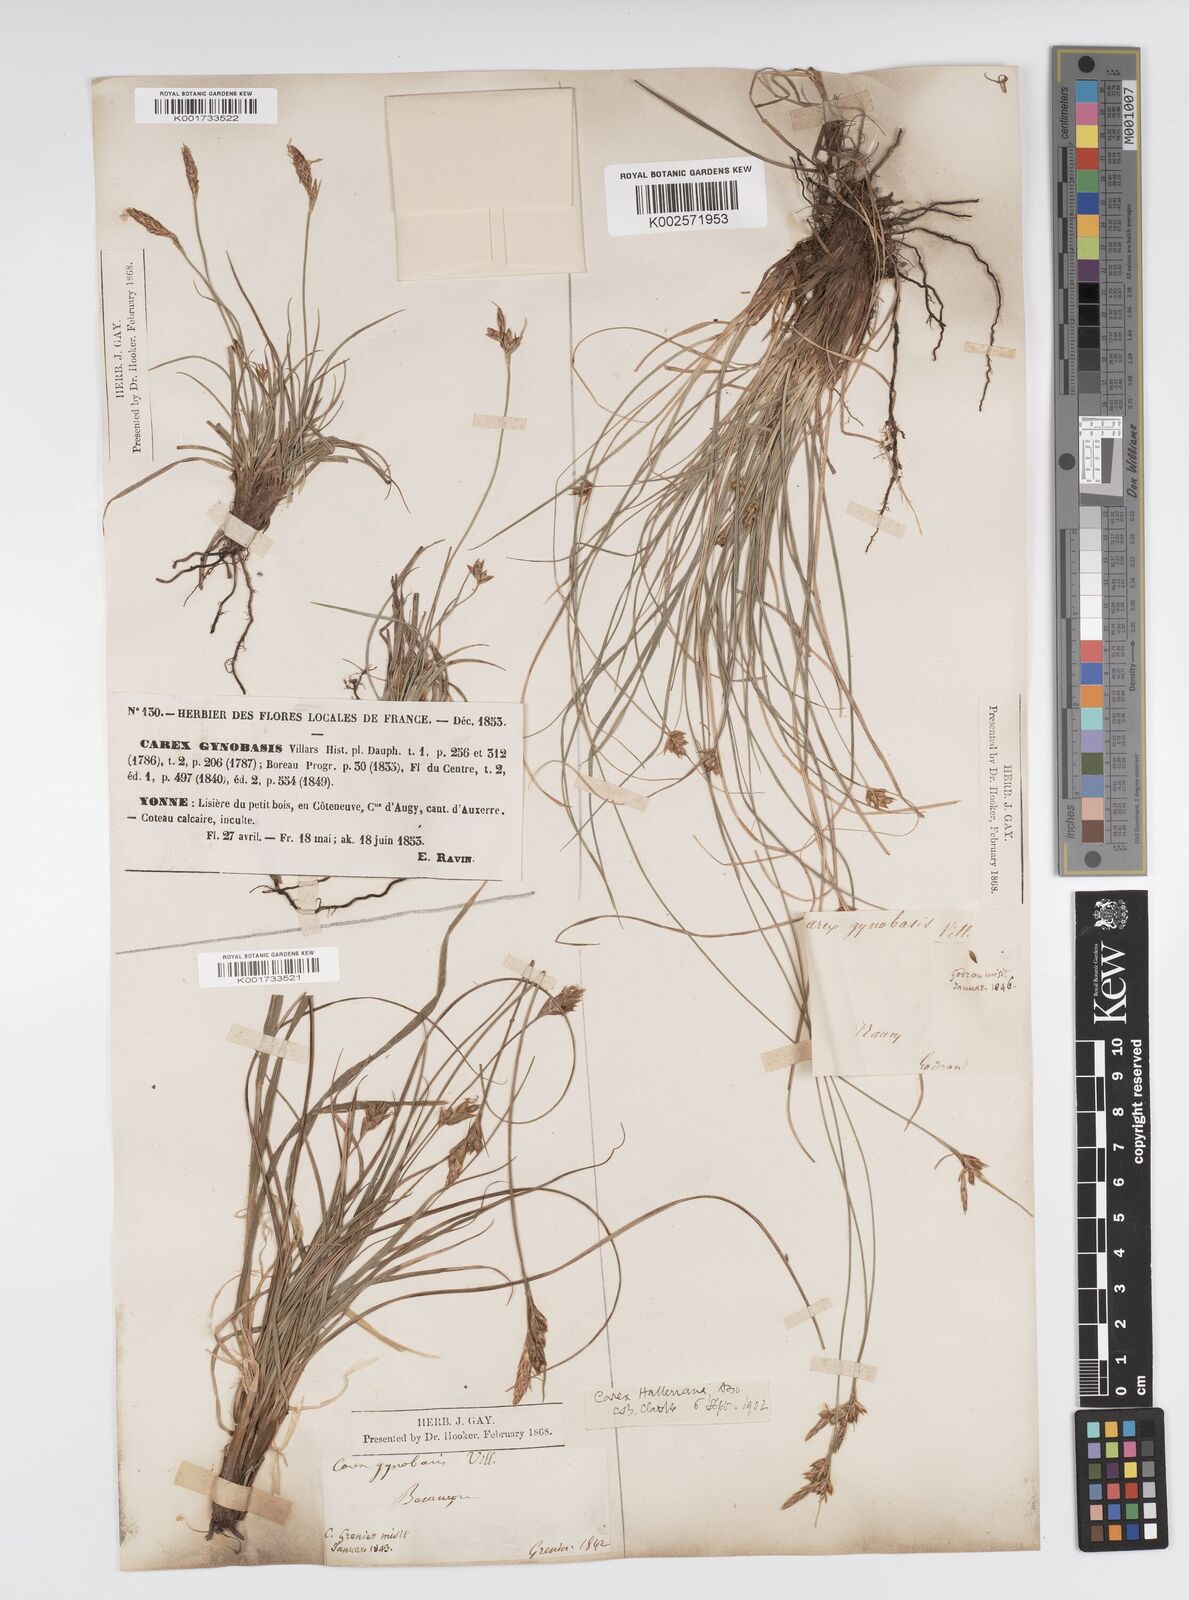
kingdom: Plantae
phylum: Tracheophyta
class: Liliopsida
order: Poales
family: Cyperaceae
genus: Carex
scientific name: Carex halleriana
